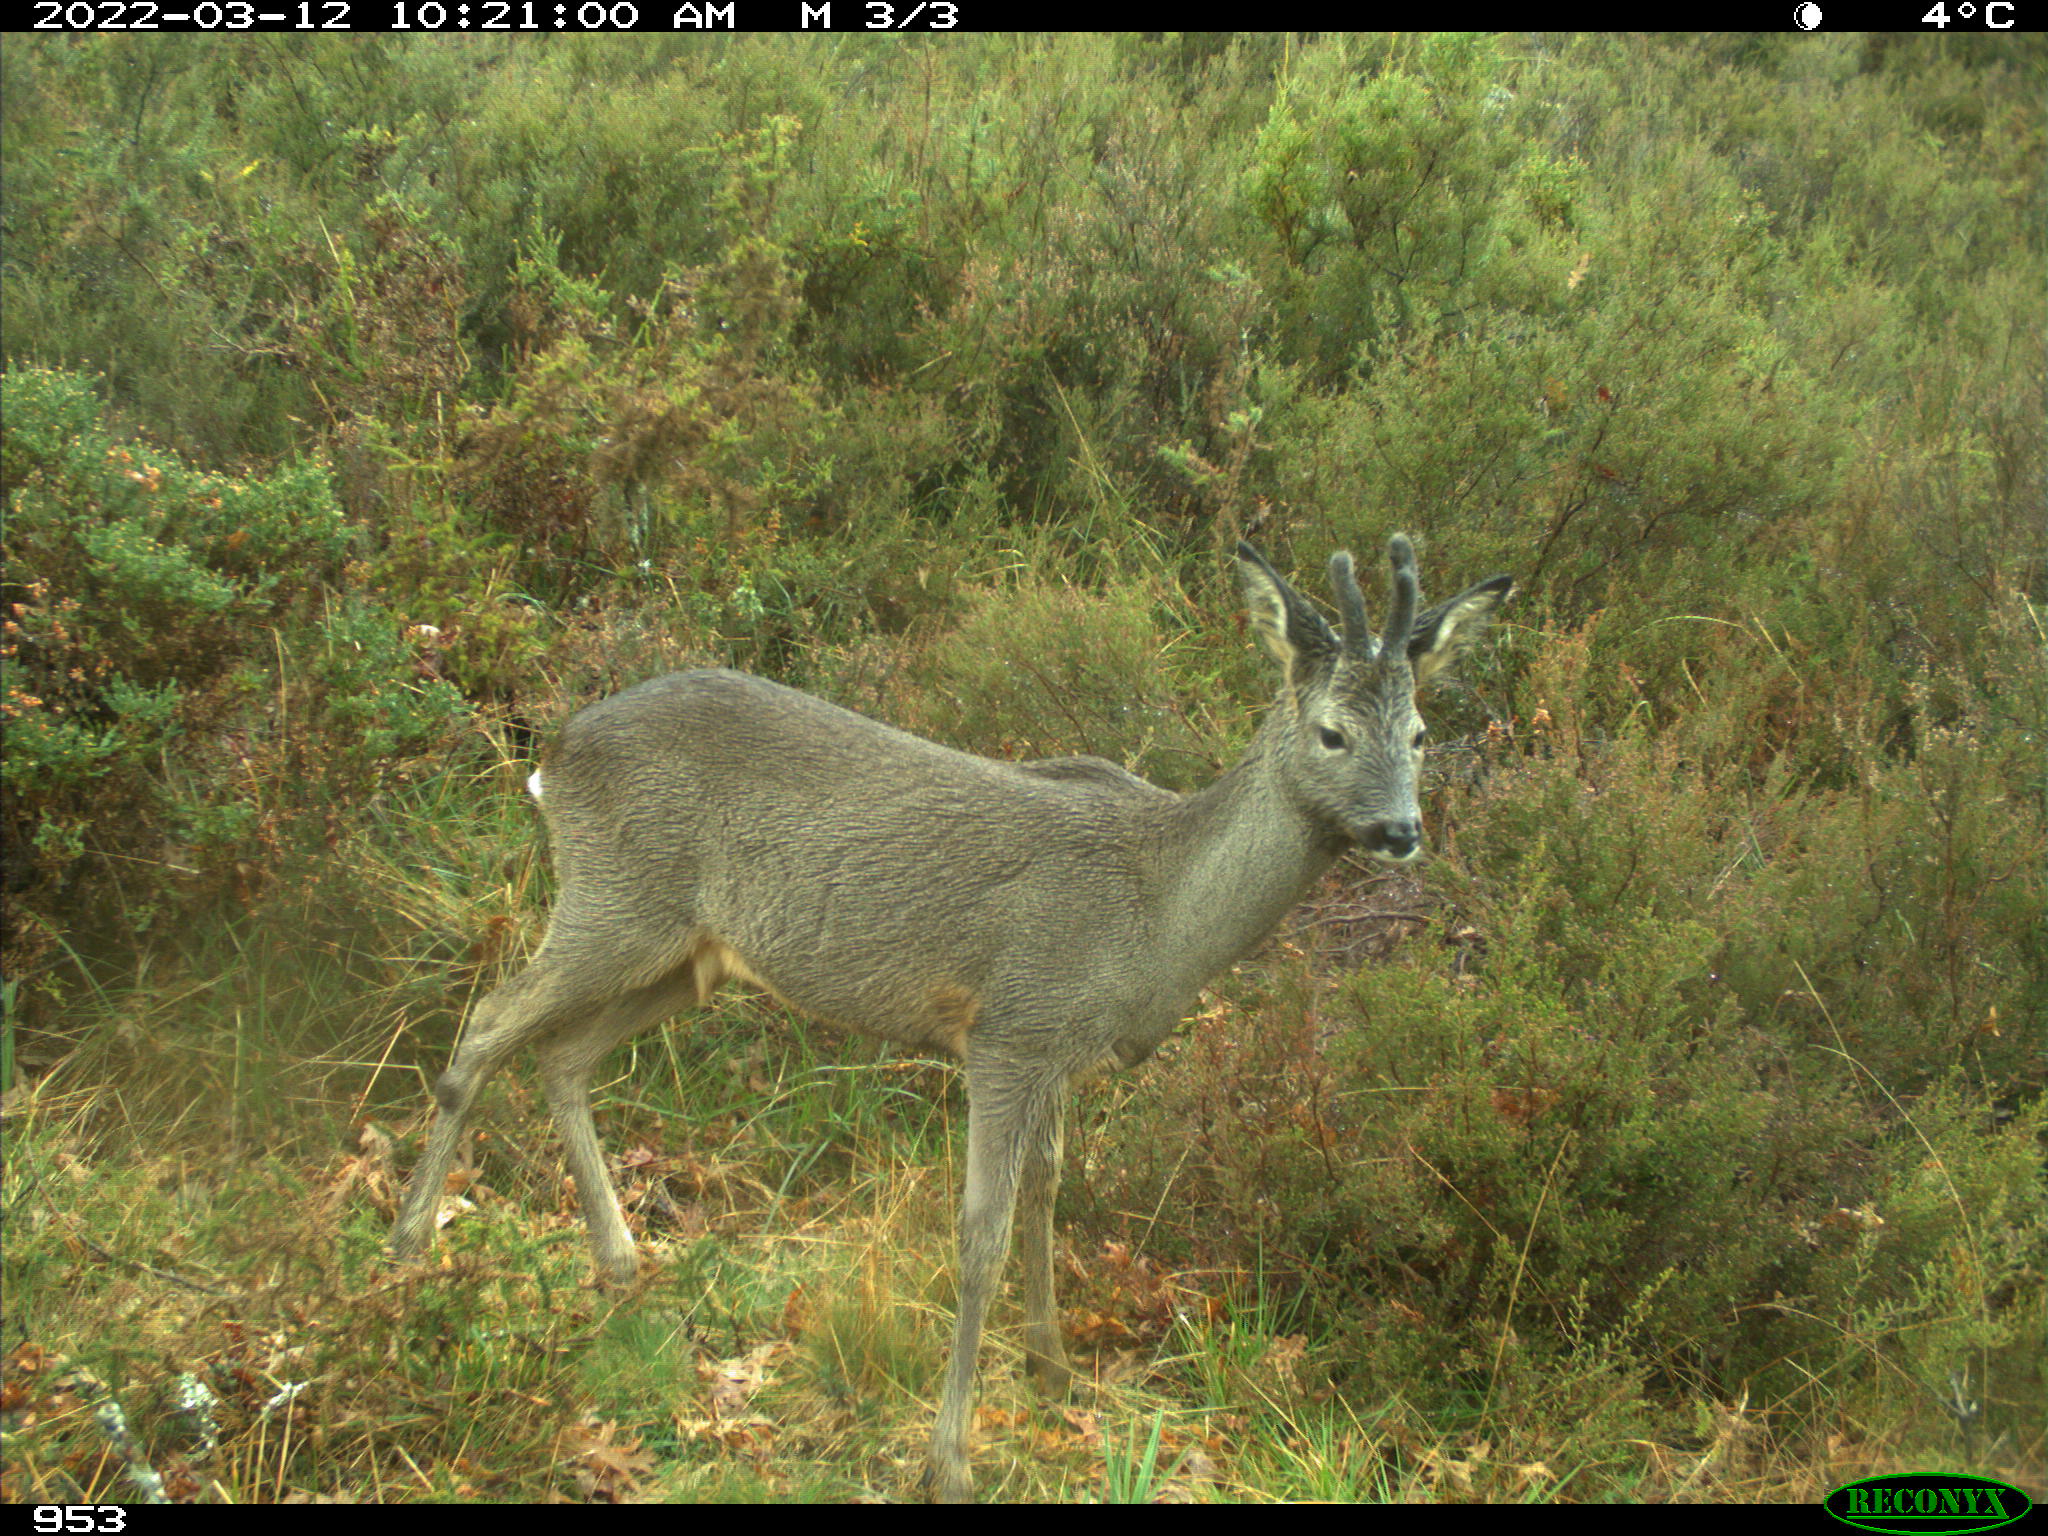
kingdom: Animalia
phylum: Chordata
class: Mammalia
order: Artiodactyla
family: Cervidae
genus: Capreolus
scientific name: Capreolus capreolus
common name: Western roe deer
